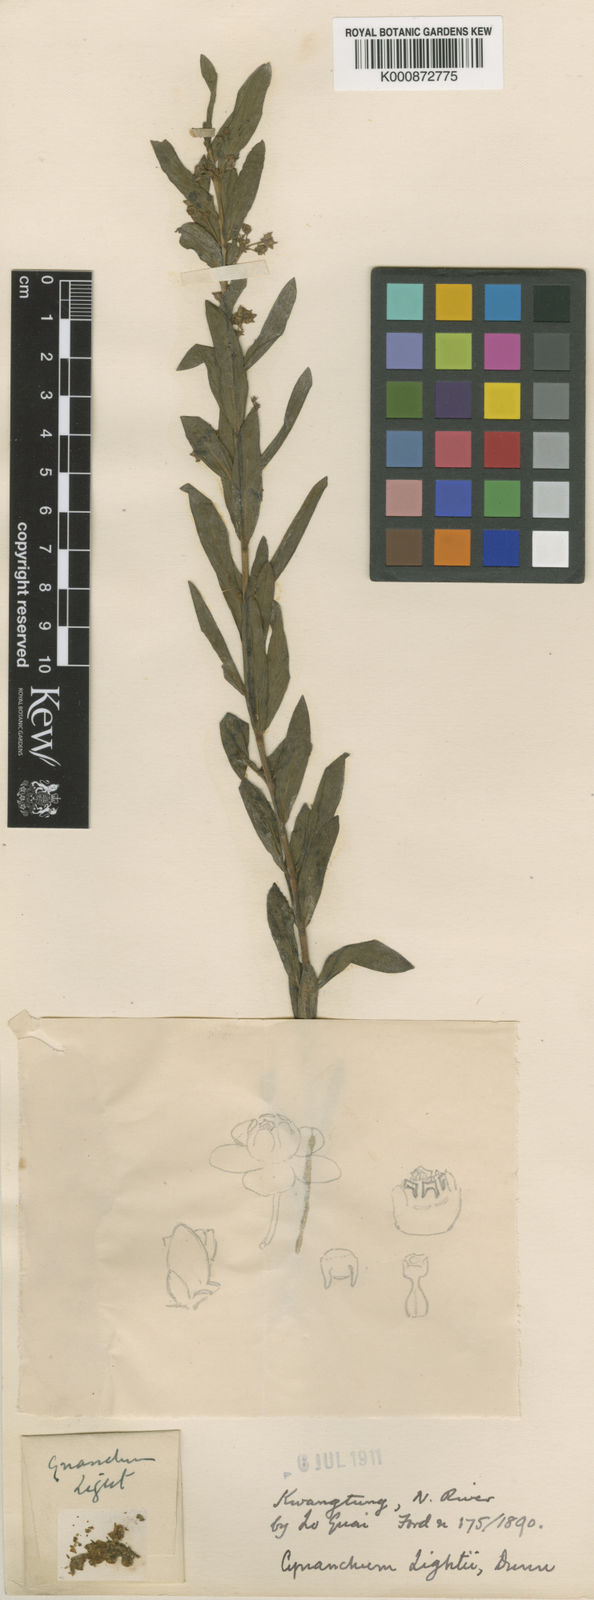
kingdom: Plantae
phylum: Tracheophyta
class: Magnoliopsida
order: Gentianales
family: Apocynaceae
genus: Vincetoxicum
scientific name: Vincetoxicum glaucescens
